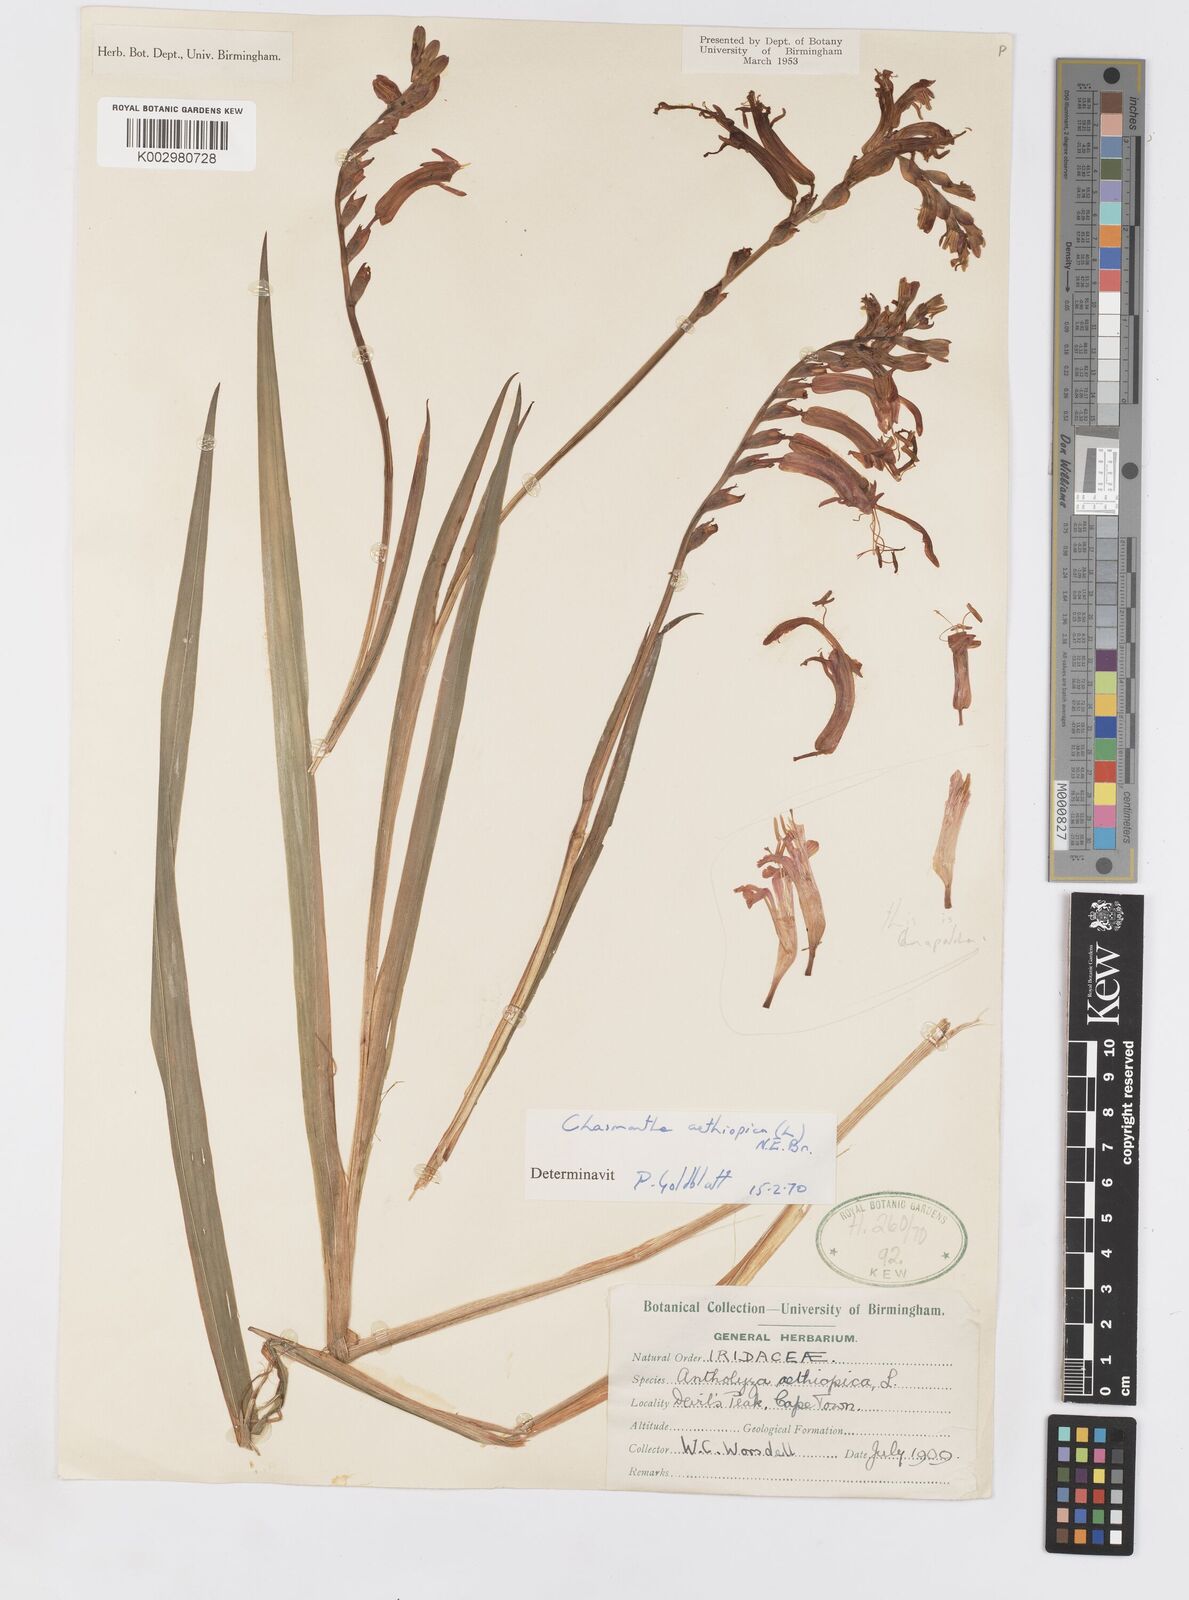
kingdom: Plantae
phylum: Tracheophyta
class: Liliopsida
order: Asparagales
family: Iridaceae
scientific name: Iridaceae
